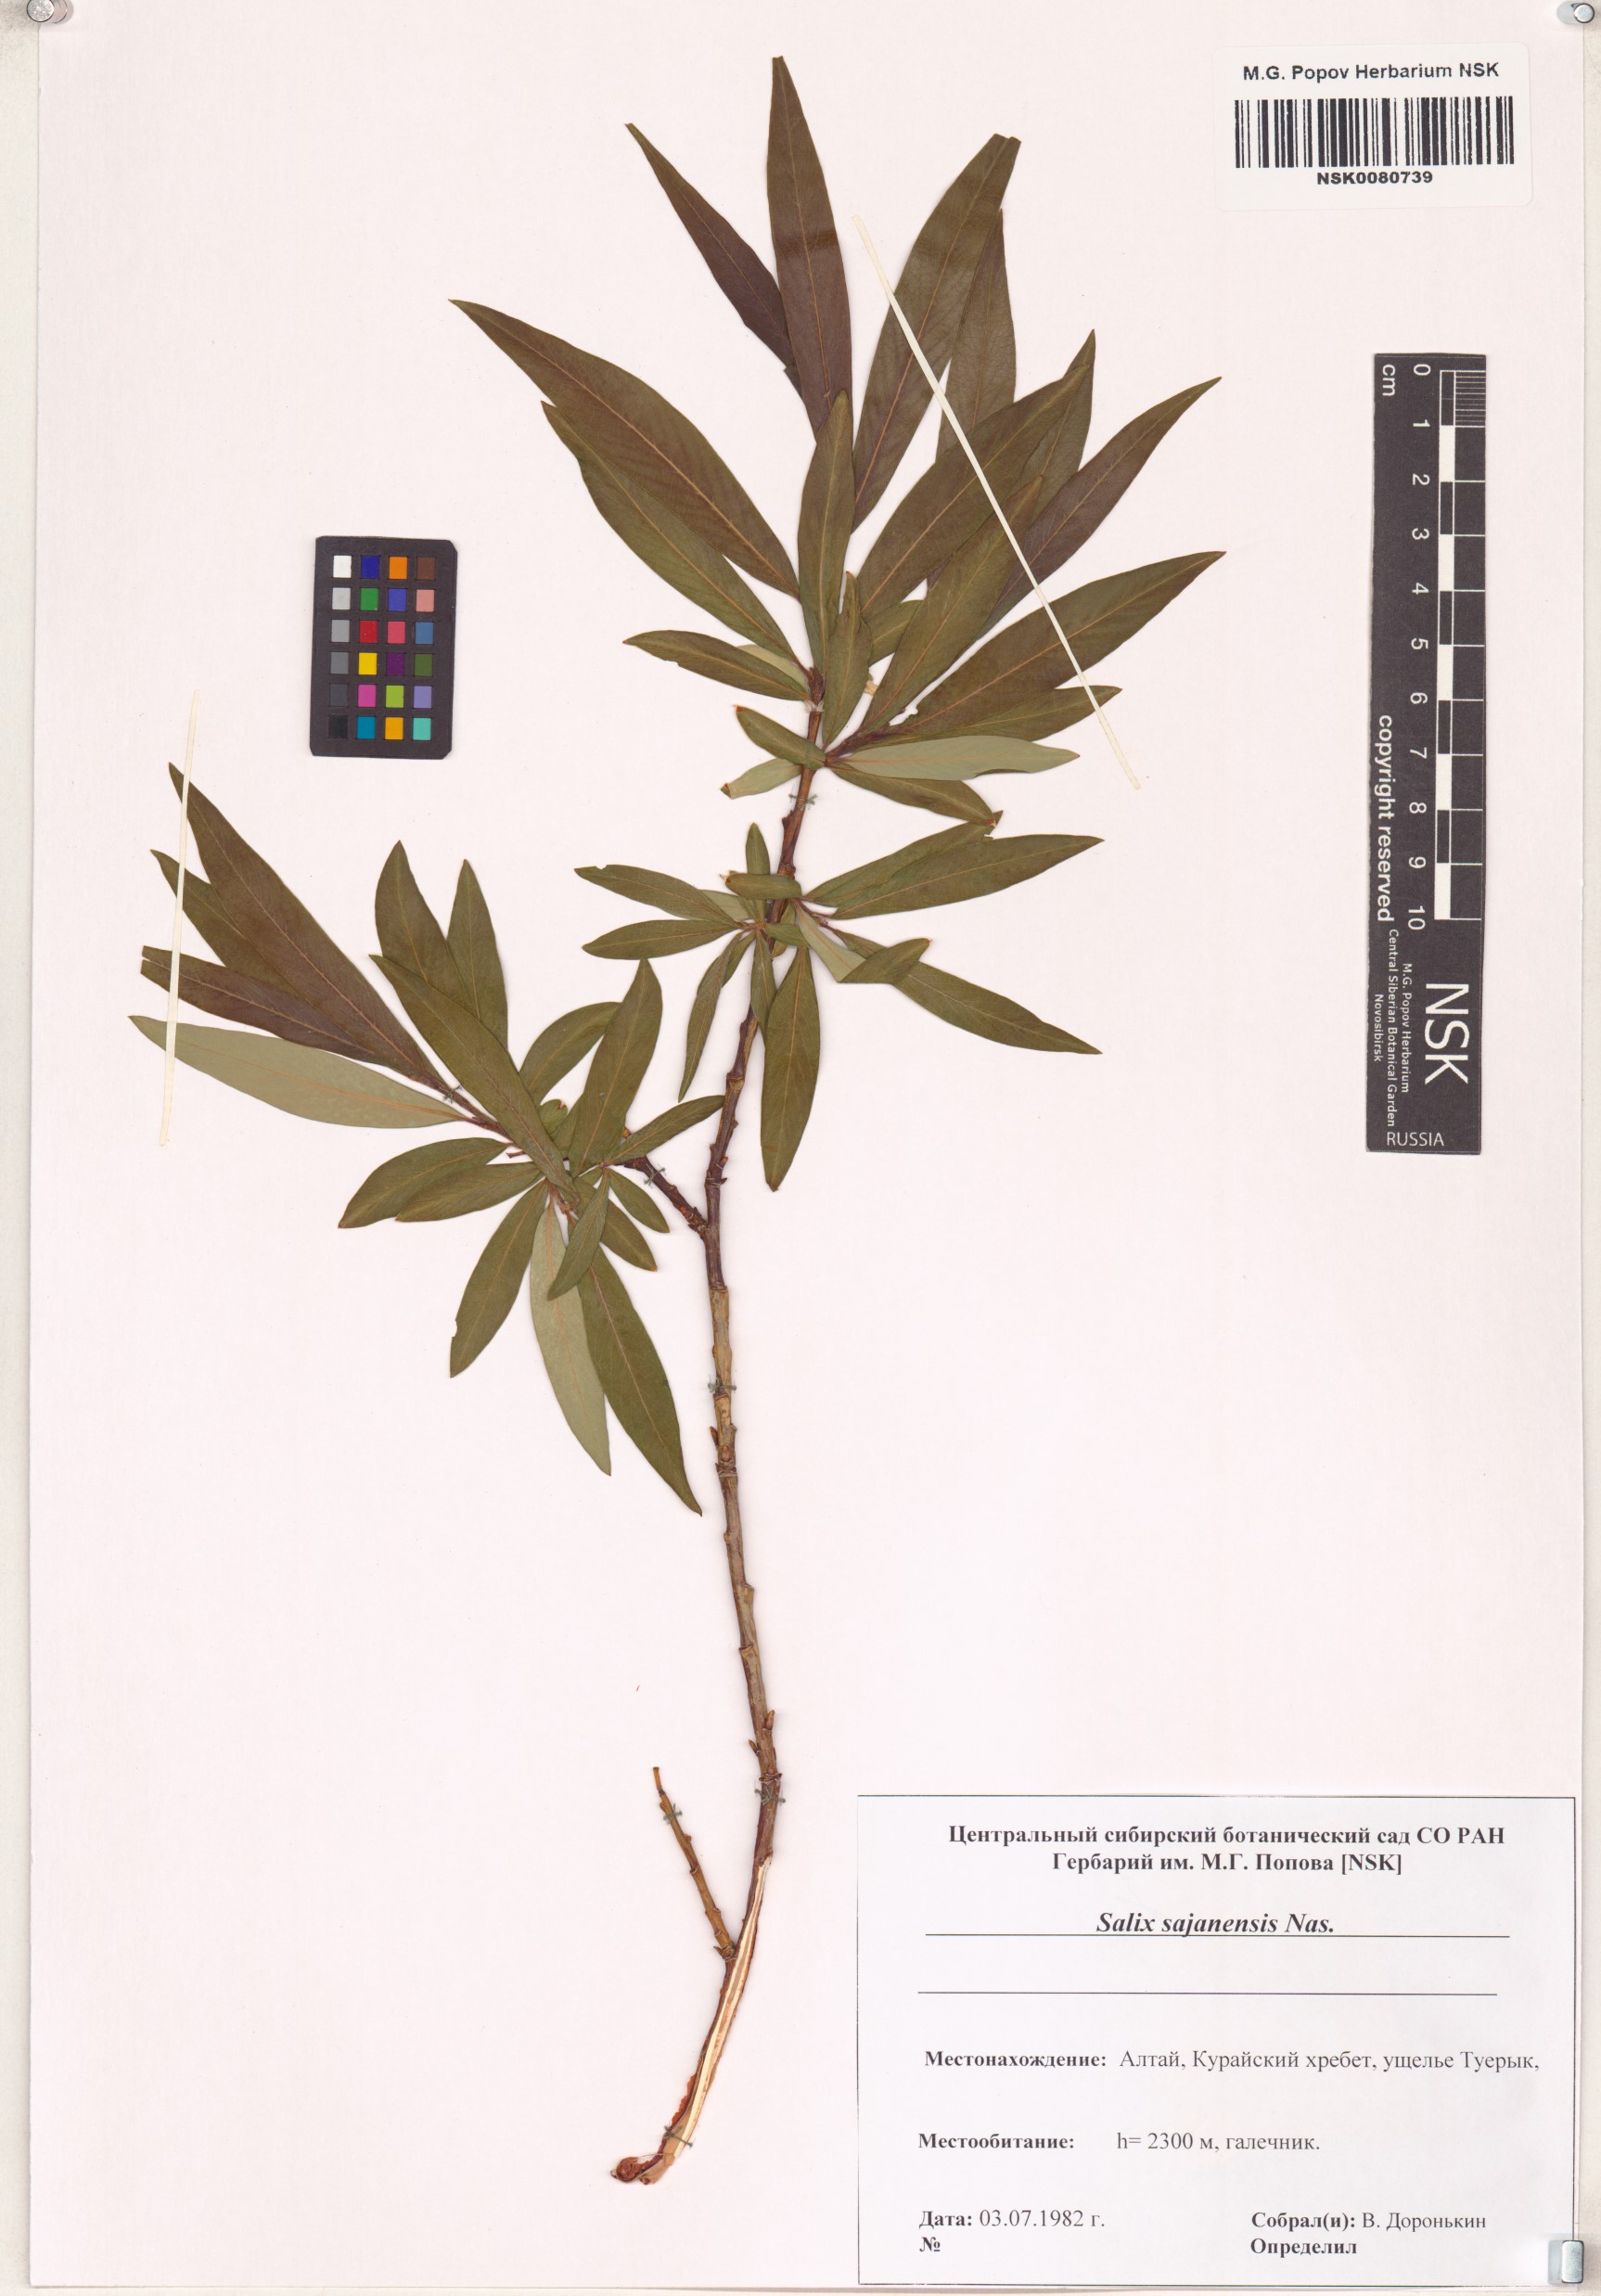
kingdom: Plantae
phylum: Tracheophyta
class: Magnoliopsida
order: Malpighiales
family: Salicaceae
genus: Salix
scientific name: Salix sajanensis
